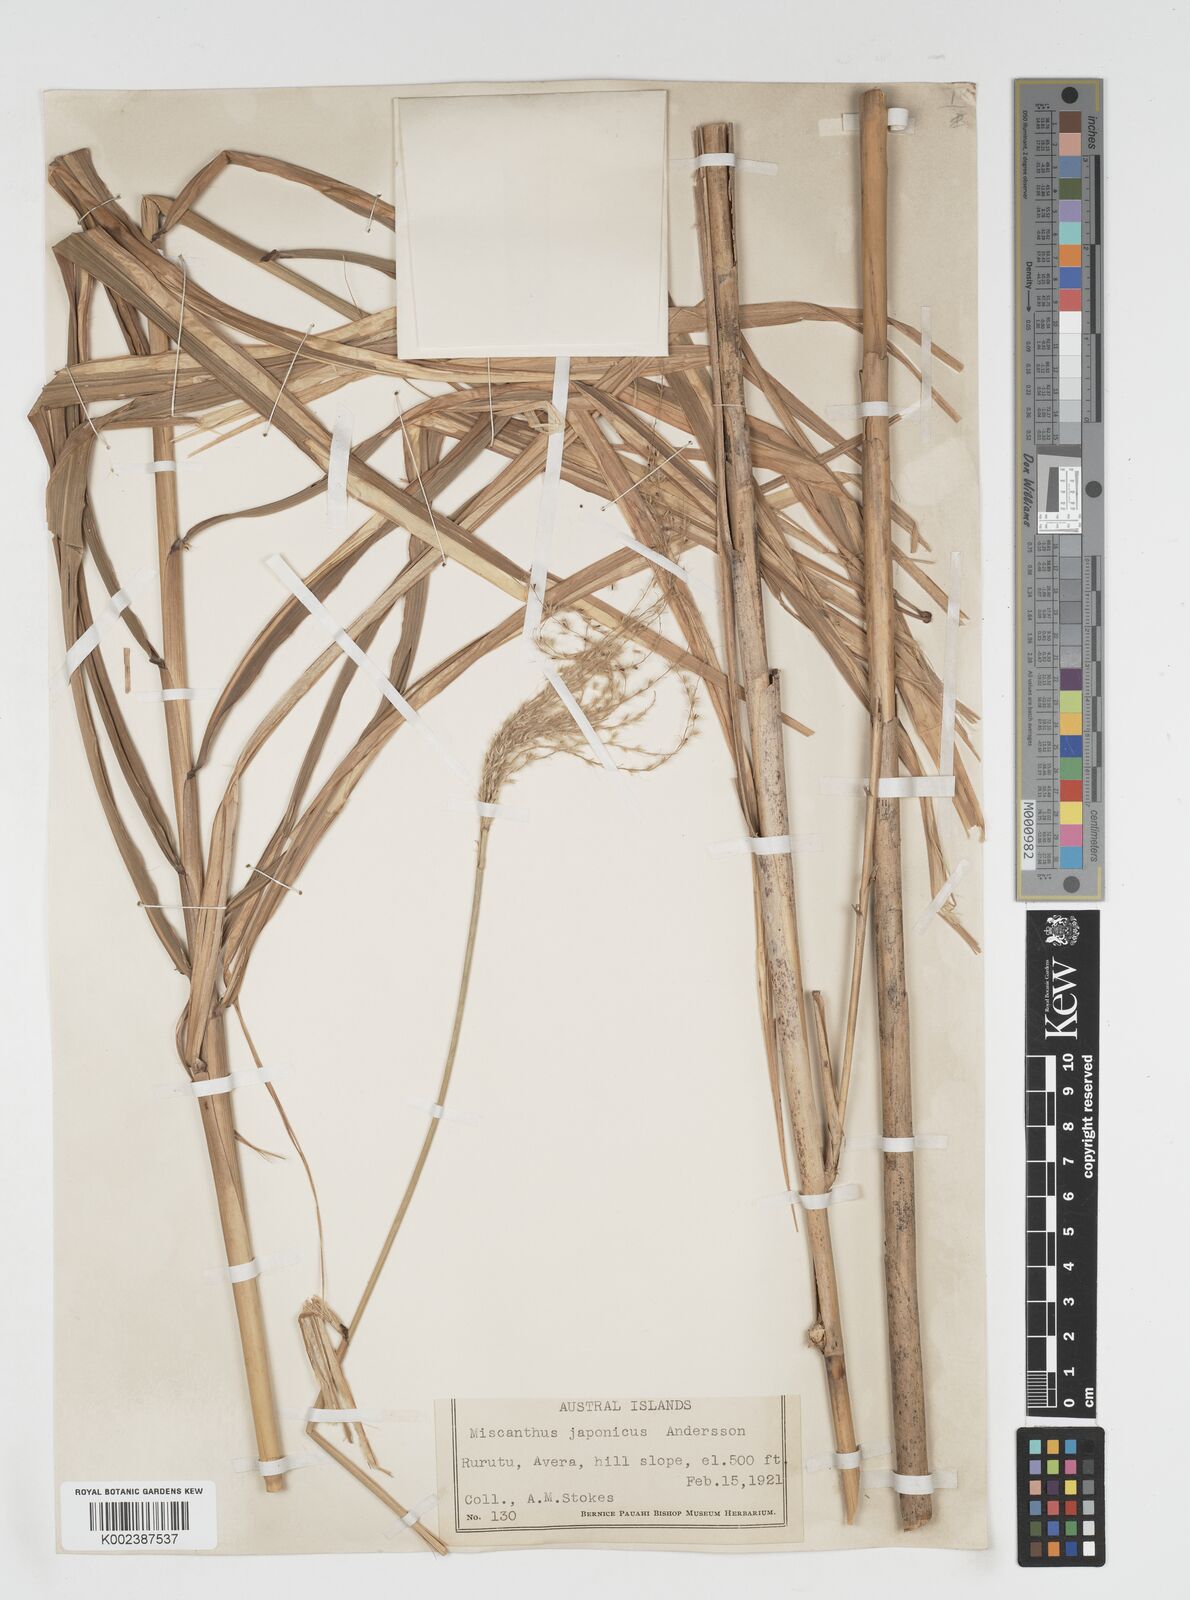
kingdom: Plantae
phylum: Tracheophyta
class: Liliopsida
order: Poales
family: Poaceae
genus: Miscanthus
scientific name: Miscanthus
